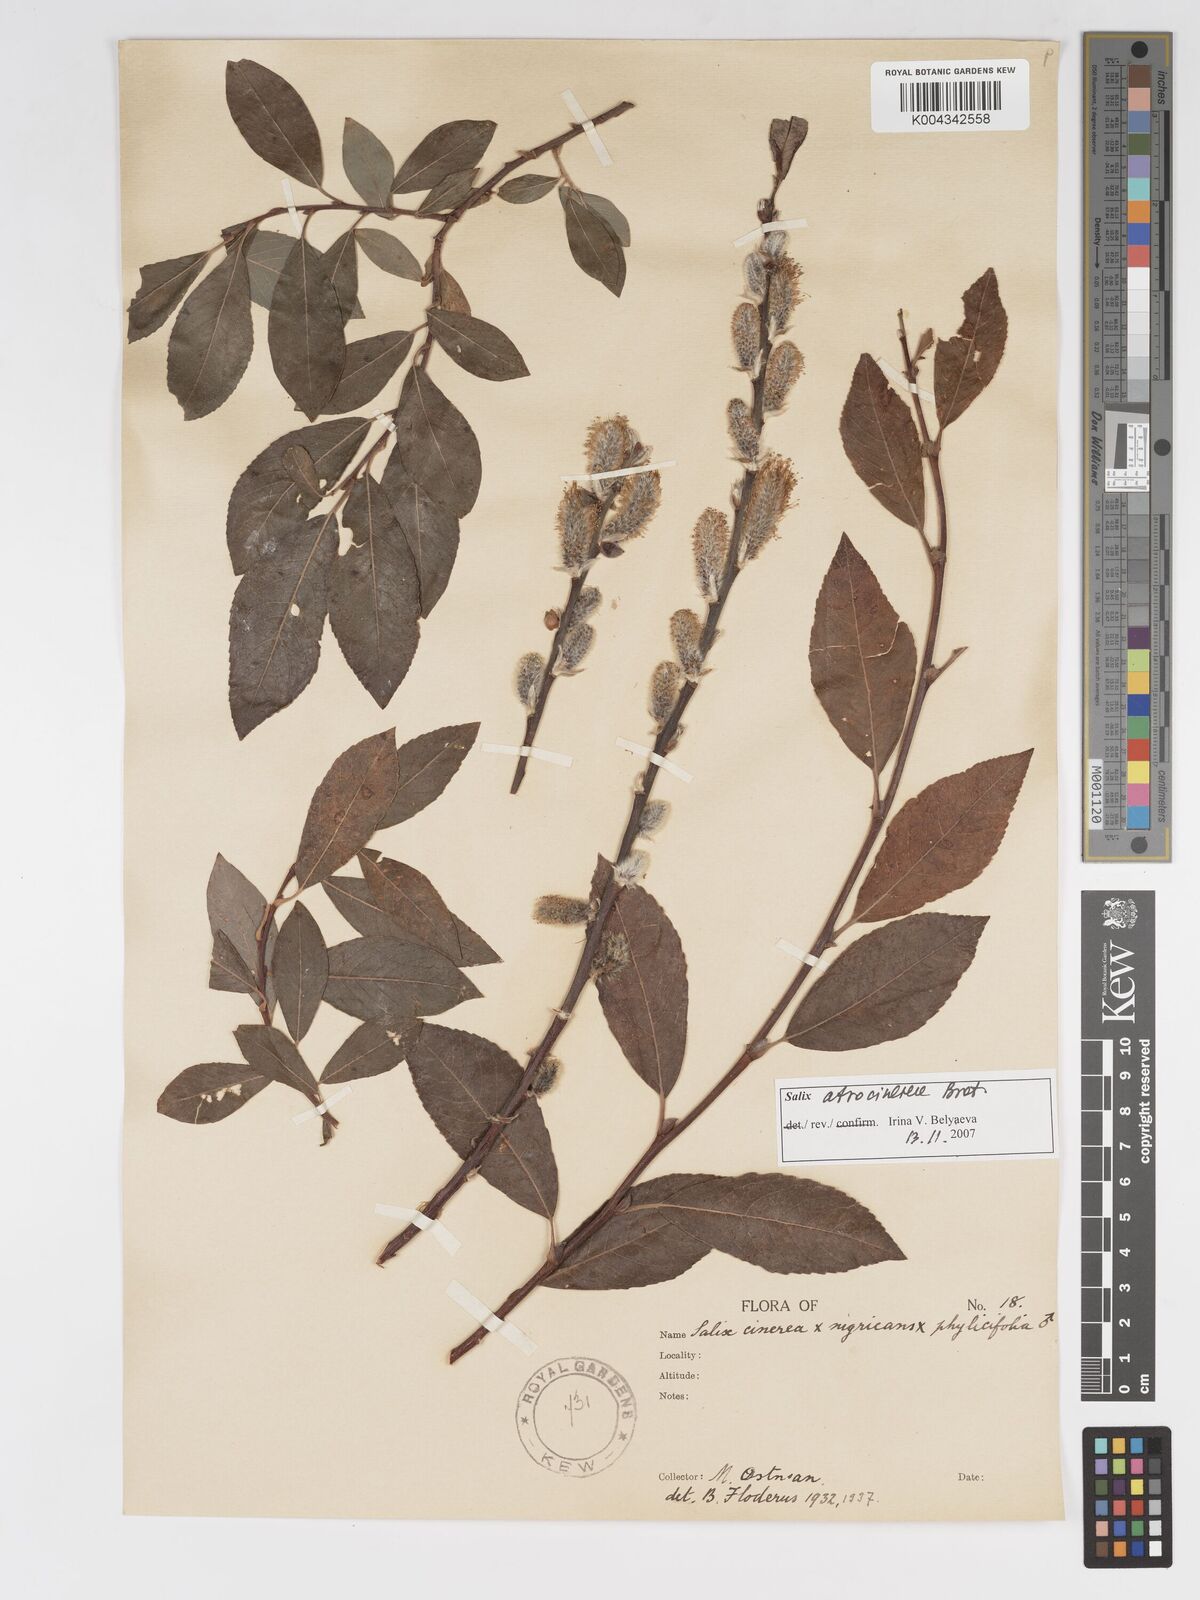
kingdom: Plantae
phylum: Tracheophyta
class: Magnoliopsida
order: Malpighiales
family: Salicaceae
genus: Salix
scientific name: Salix cinerea
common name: Common sallow
